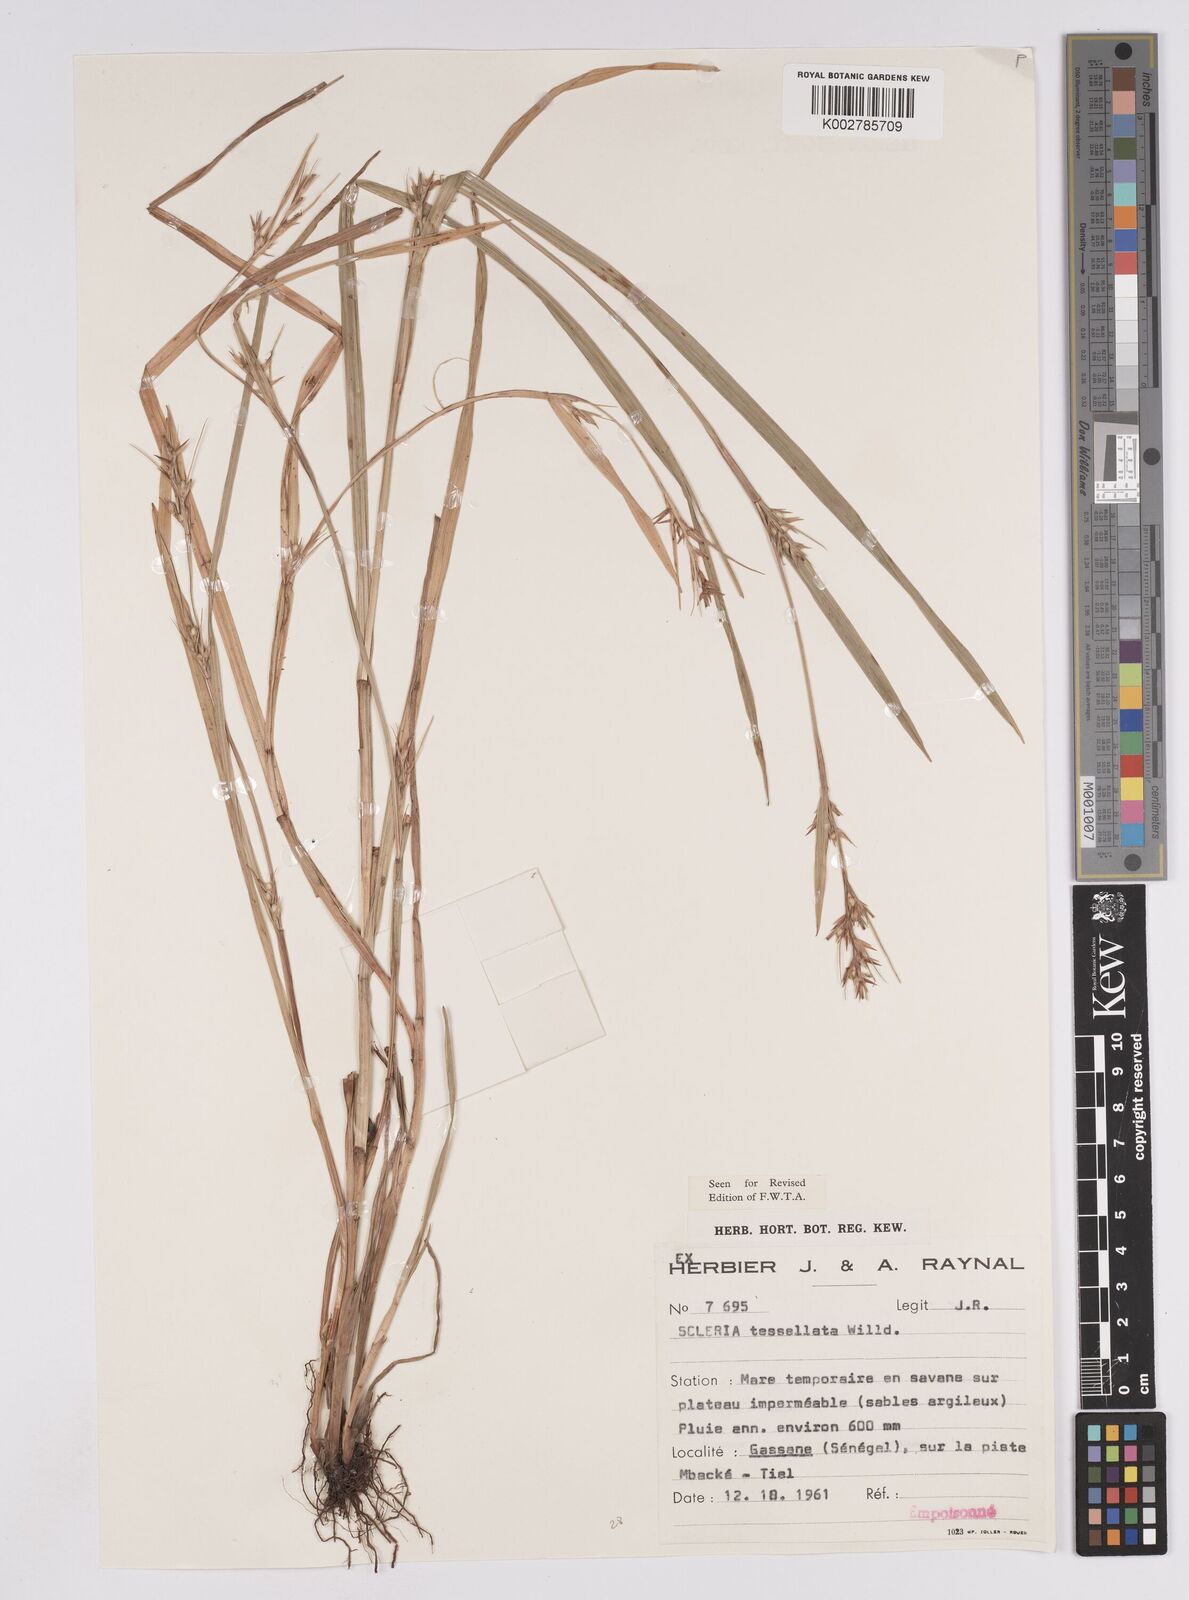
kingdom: Plantae
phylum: Tracheophyta
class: Liliopsida
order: Poales
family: Cyperaceae
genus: Scleria
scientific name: Scleria tessellata
